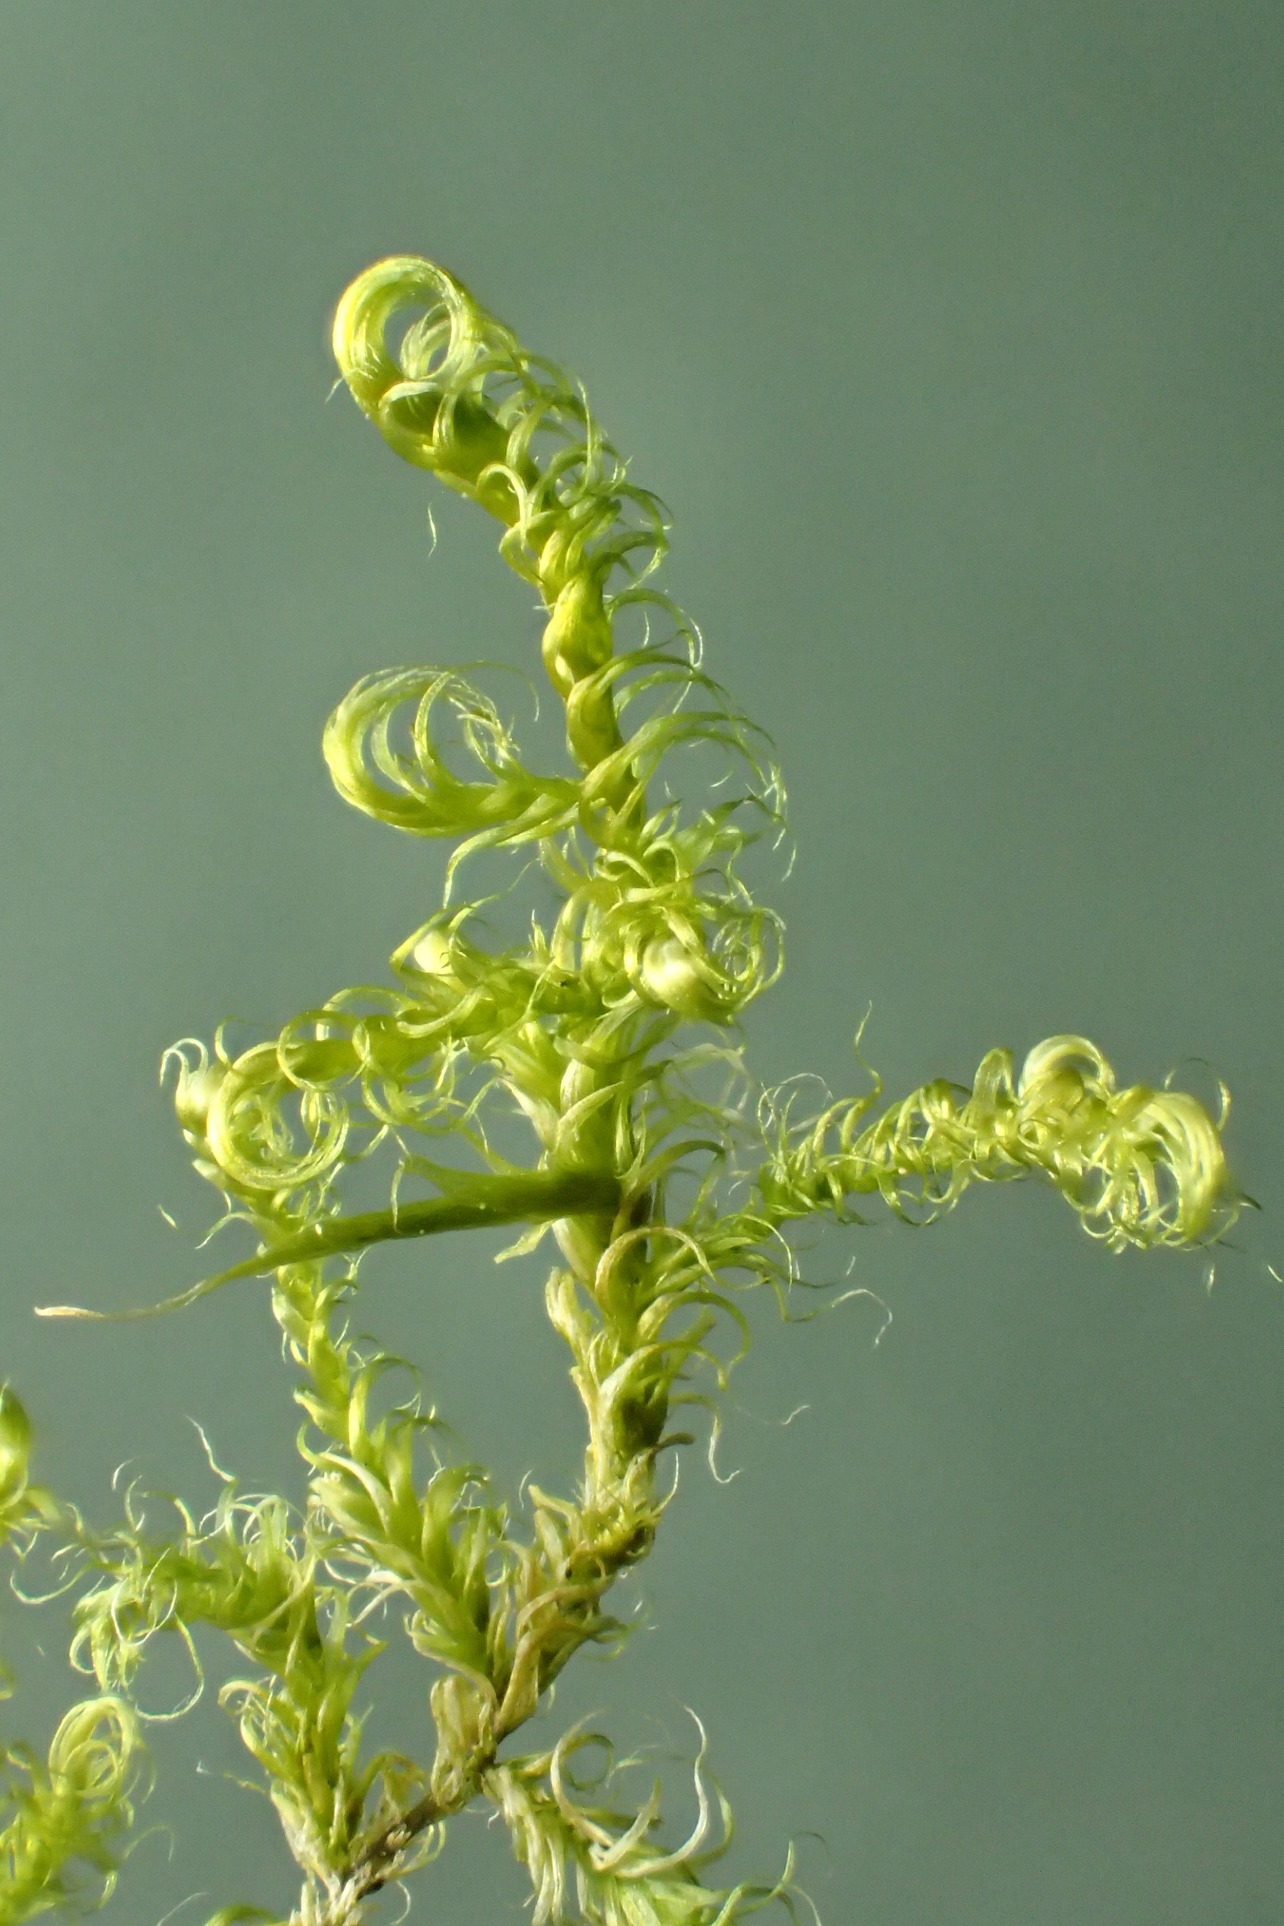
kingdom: Plantae
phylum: Bryophyta
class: Bryopsida
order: Hypnales
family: Scorpidiaceae
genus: Sanionia
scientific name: Sanionia uncinata
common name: Stribet krogblad
